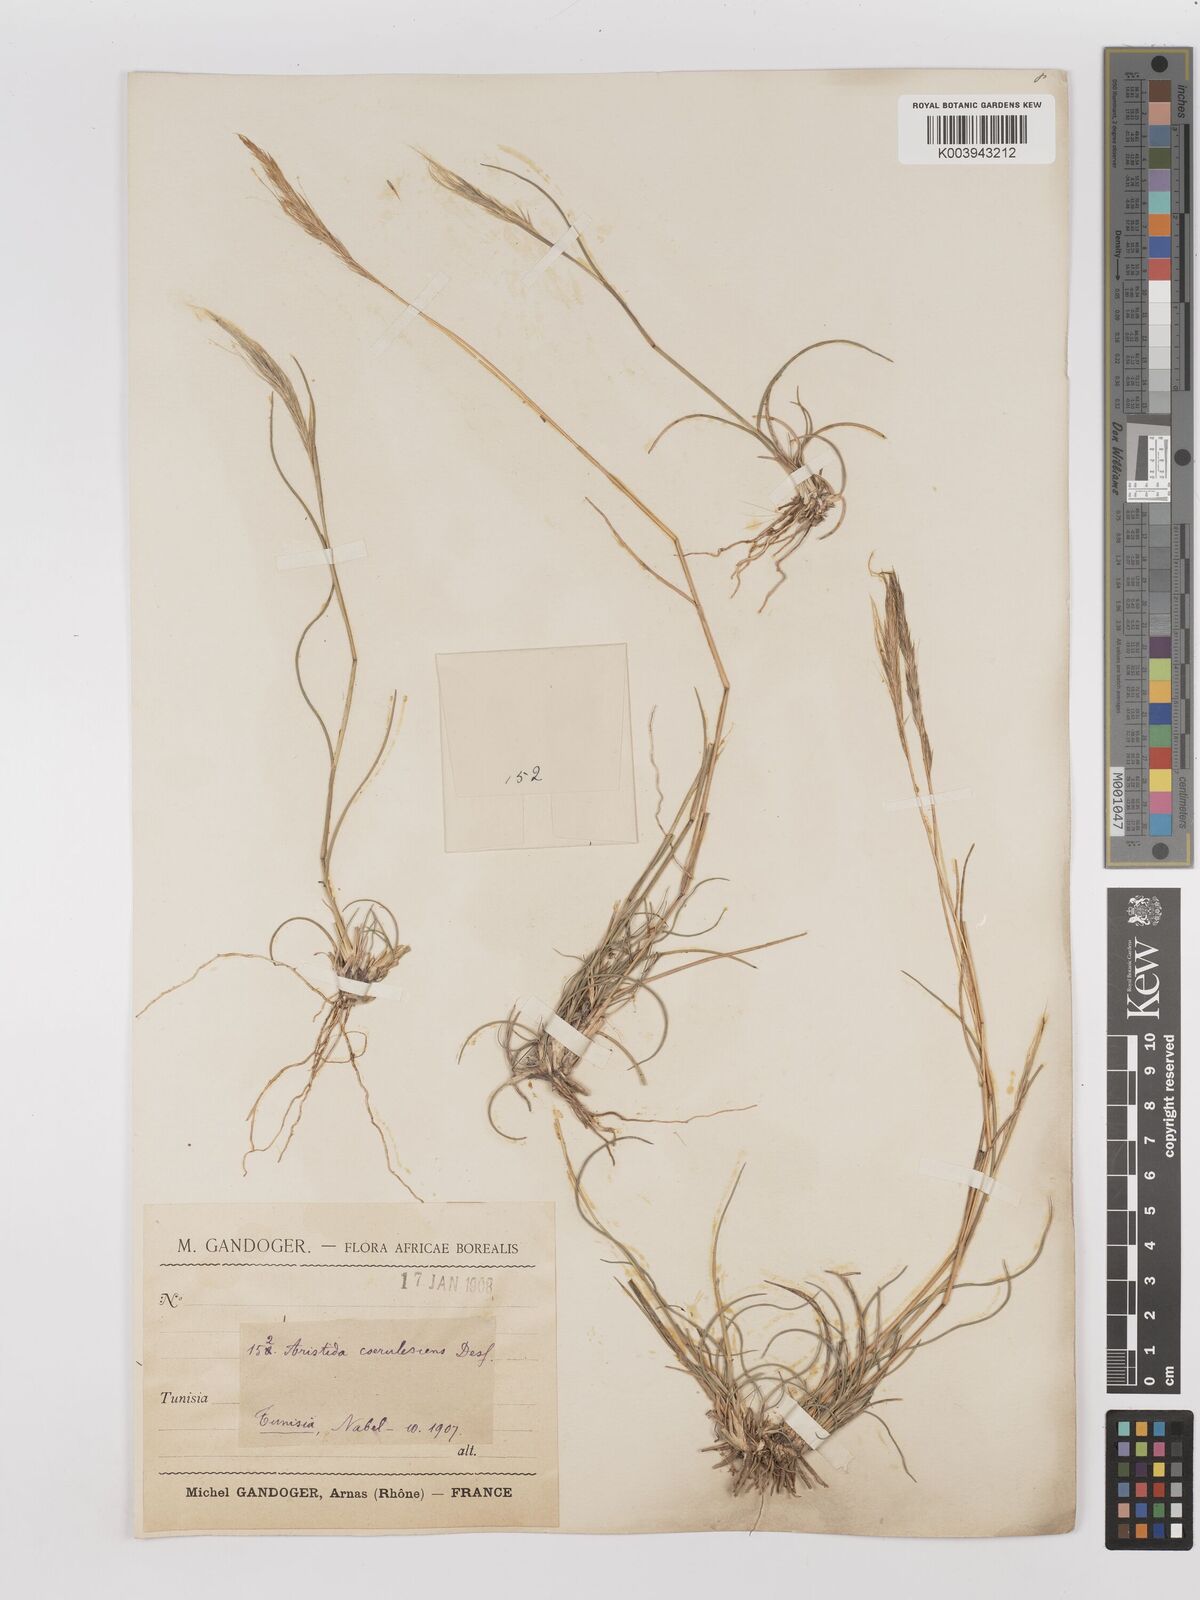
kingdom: Plantae
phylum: Tracheophyta
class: Liliopsida
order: Poales
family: Poaceae
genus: Aristida
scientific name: Aristida adscensionis
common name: Sixweeks threeawn
